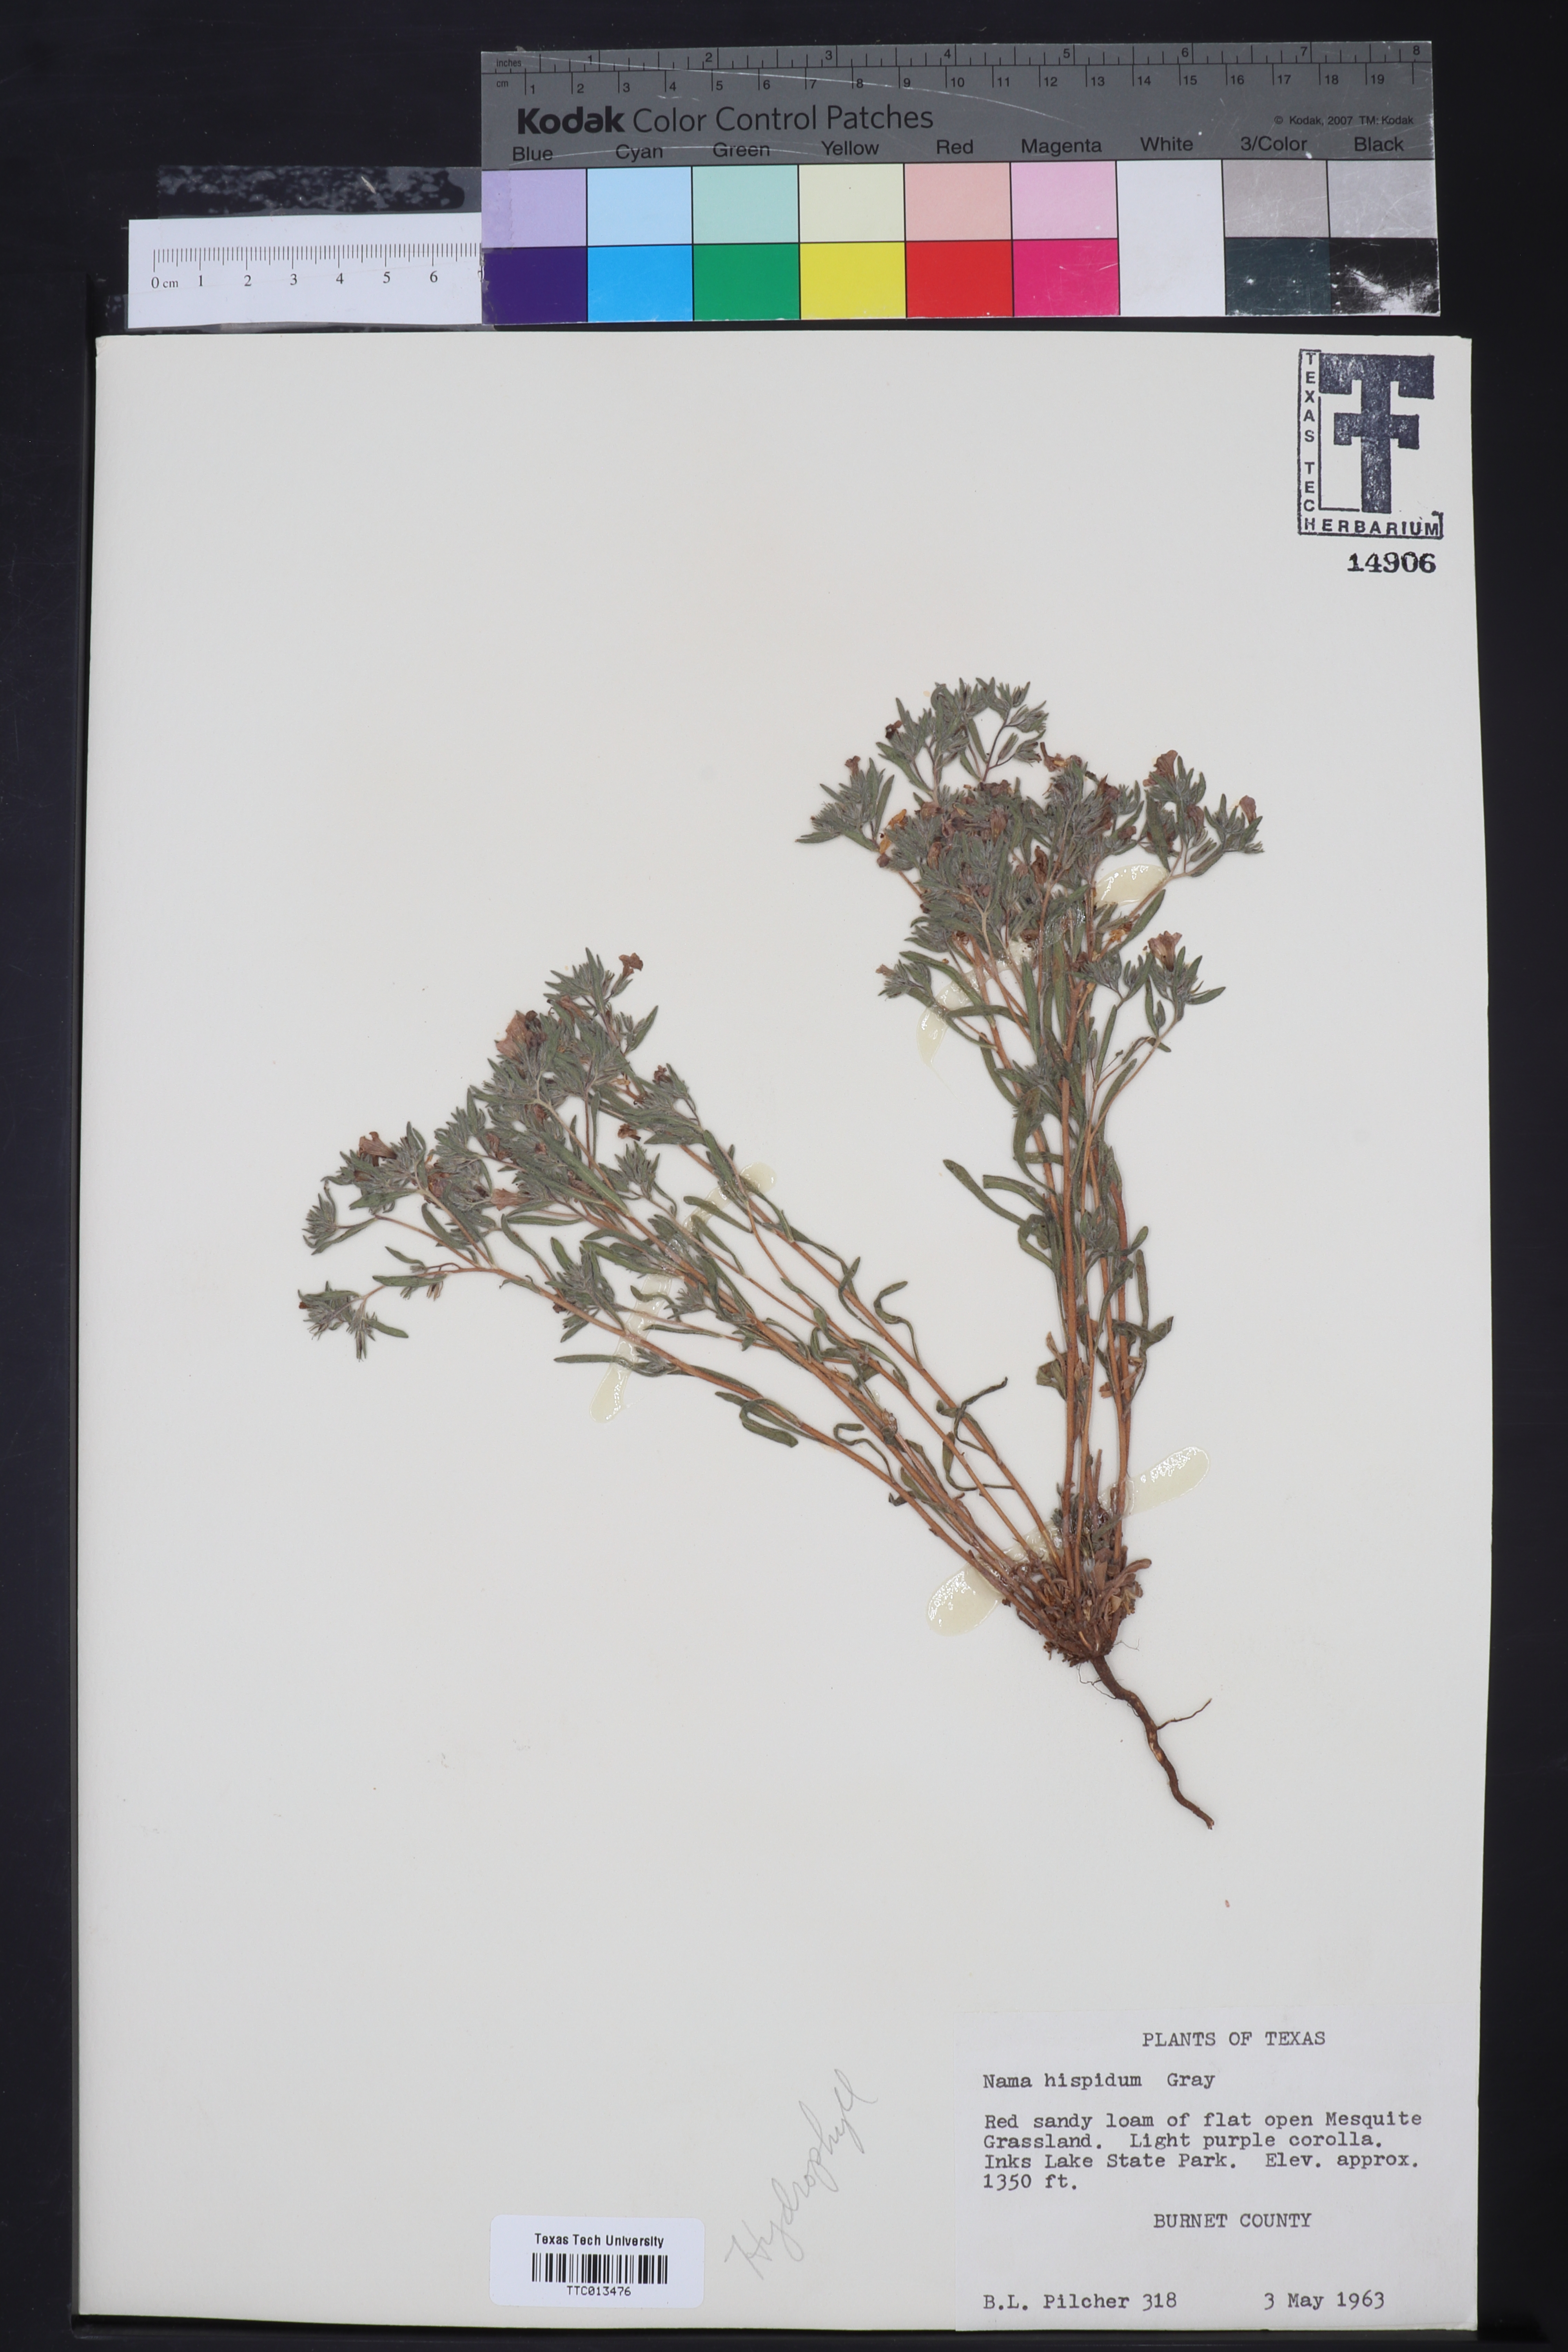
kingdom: Plantae
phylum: Tracheophyta
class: Magnoliopsida
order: Boraginales
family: Namaceae
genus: Nama
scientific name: Nama hispida
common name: Bristly nama
